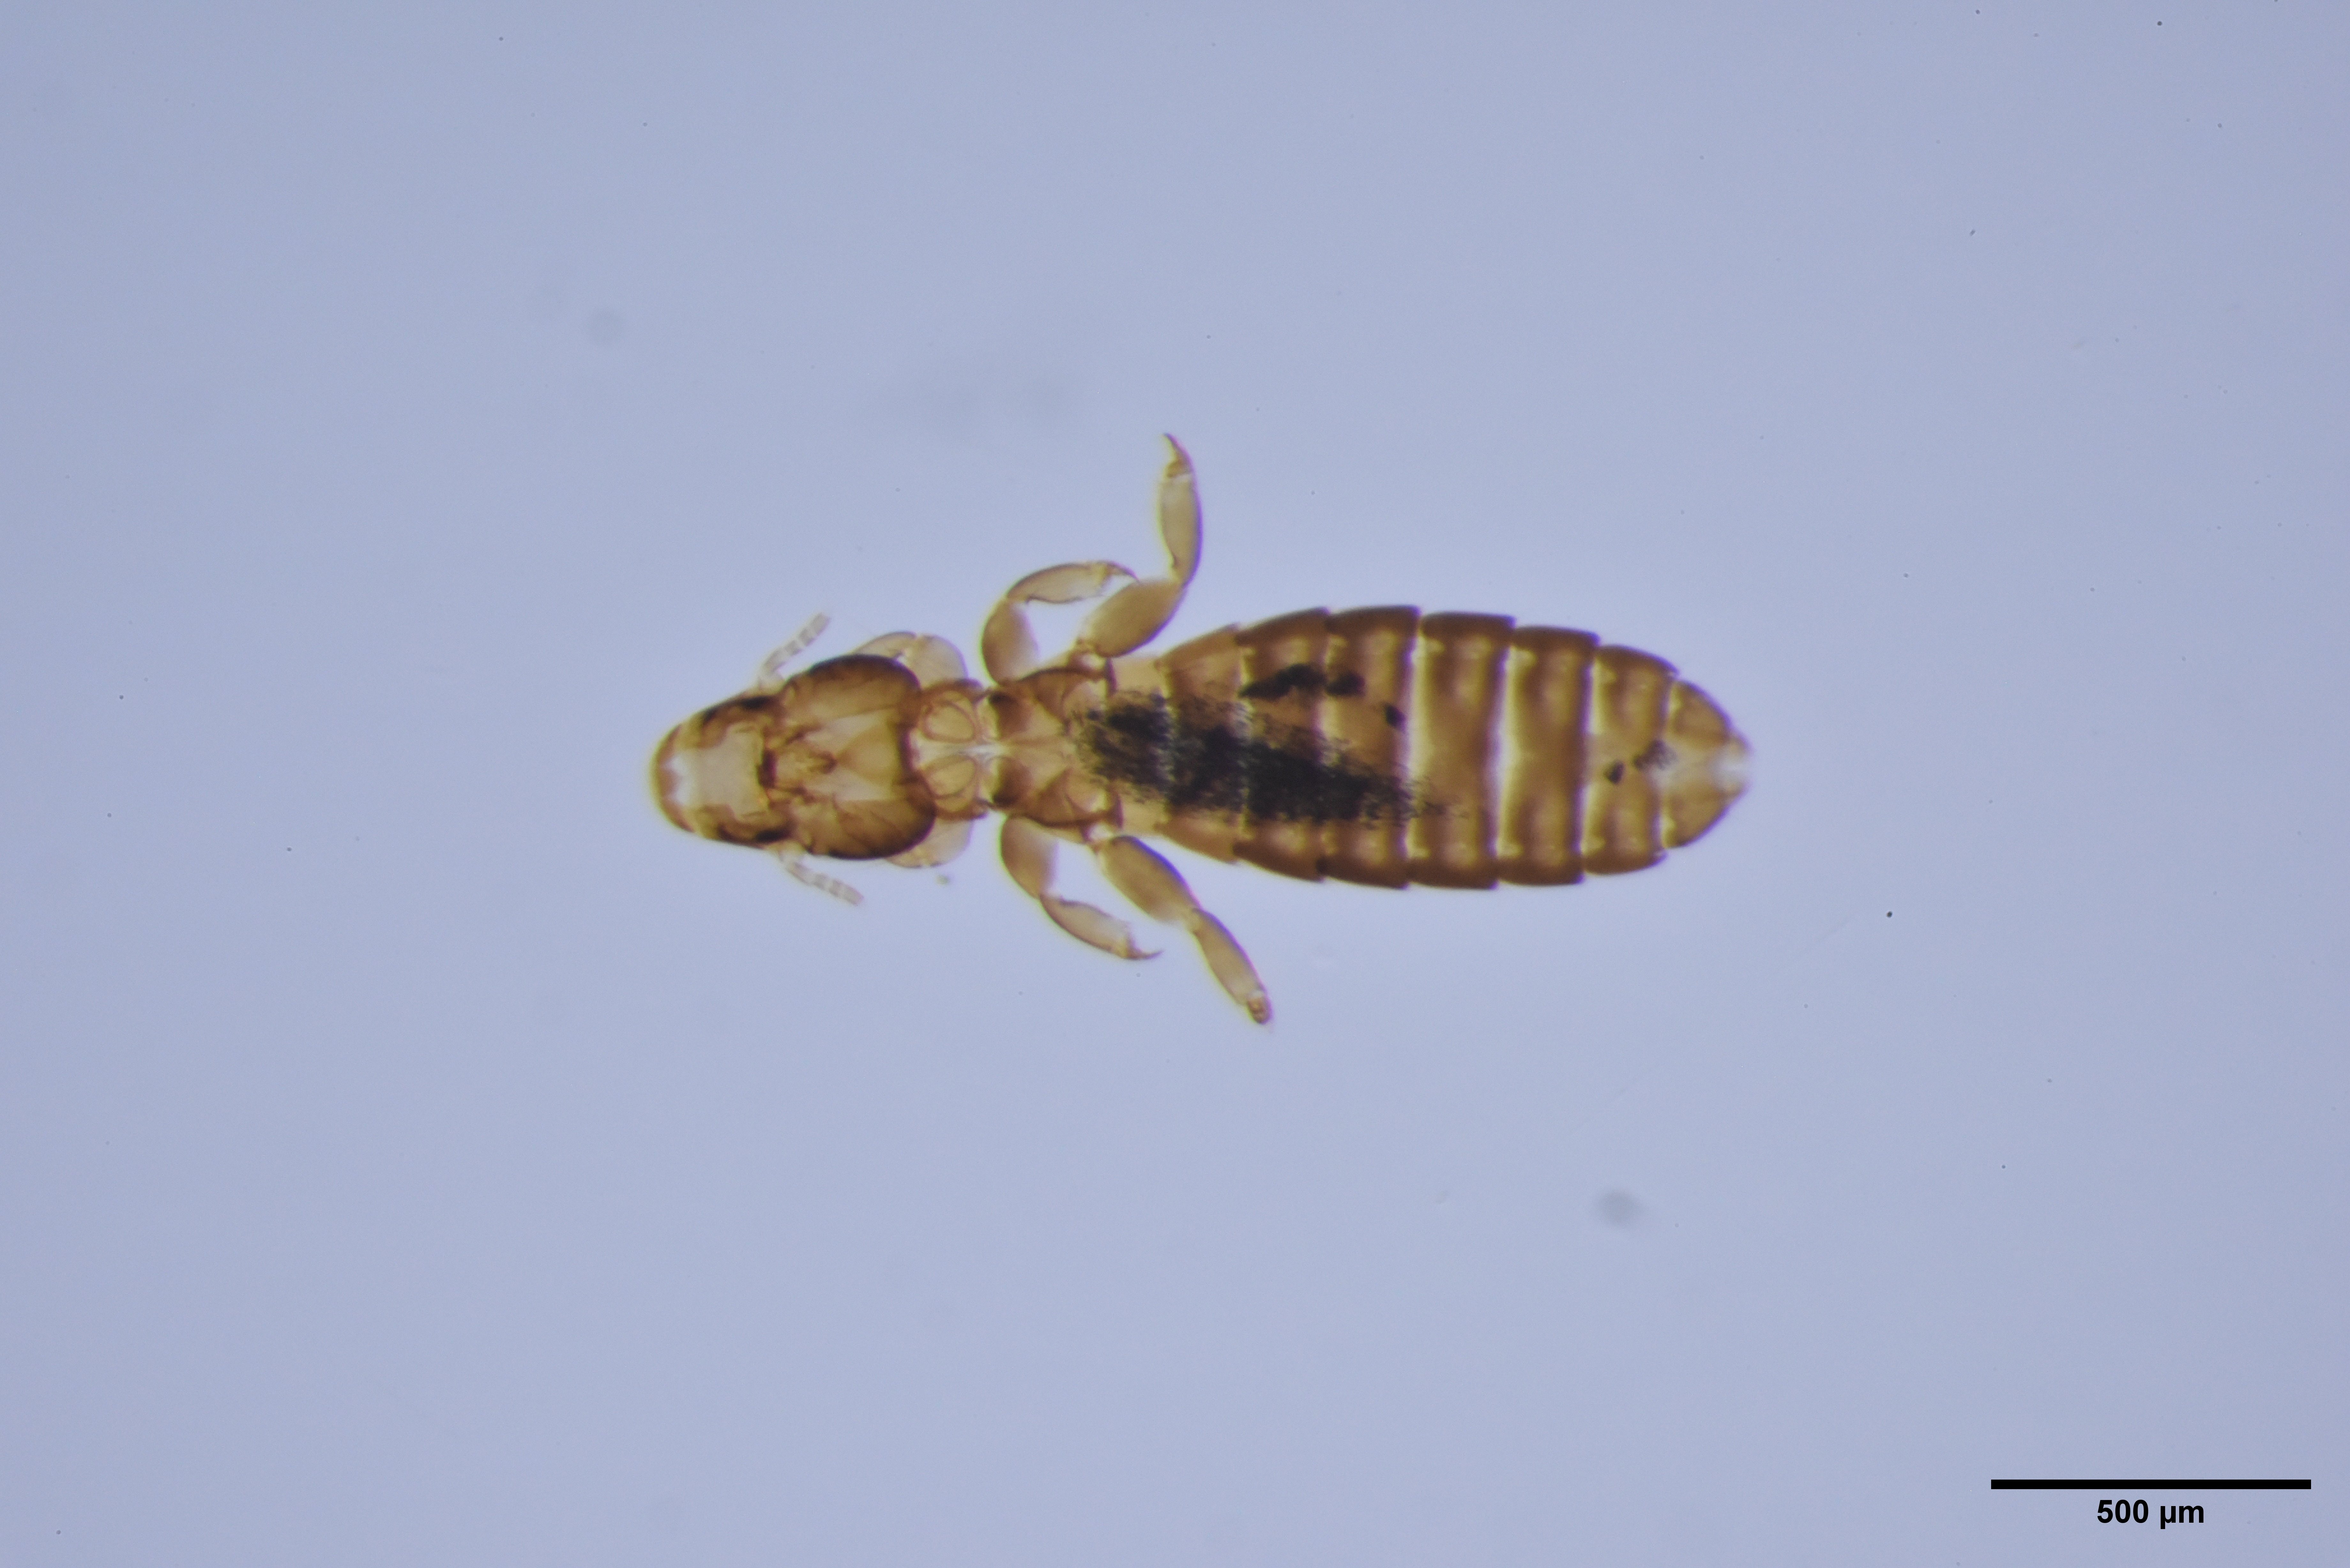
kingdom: Animalia
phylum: Arthropoda
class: Insecta
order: Psocodea
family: Philopteridae
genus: Lunaceps
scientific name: Lunaceps limosella
